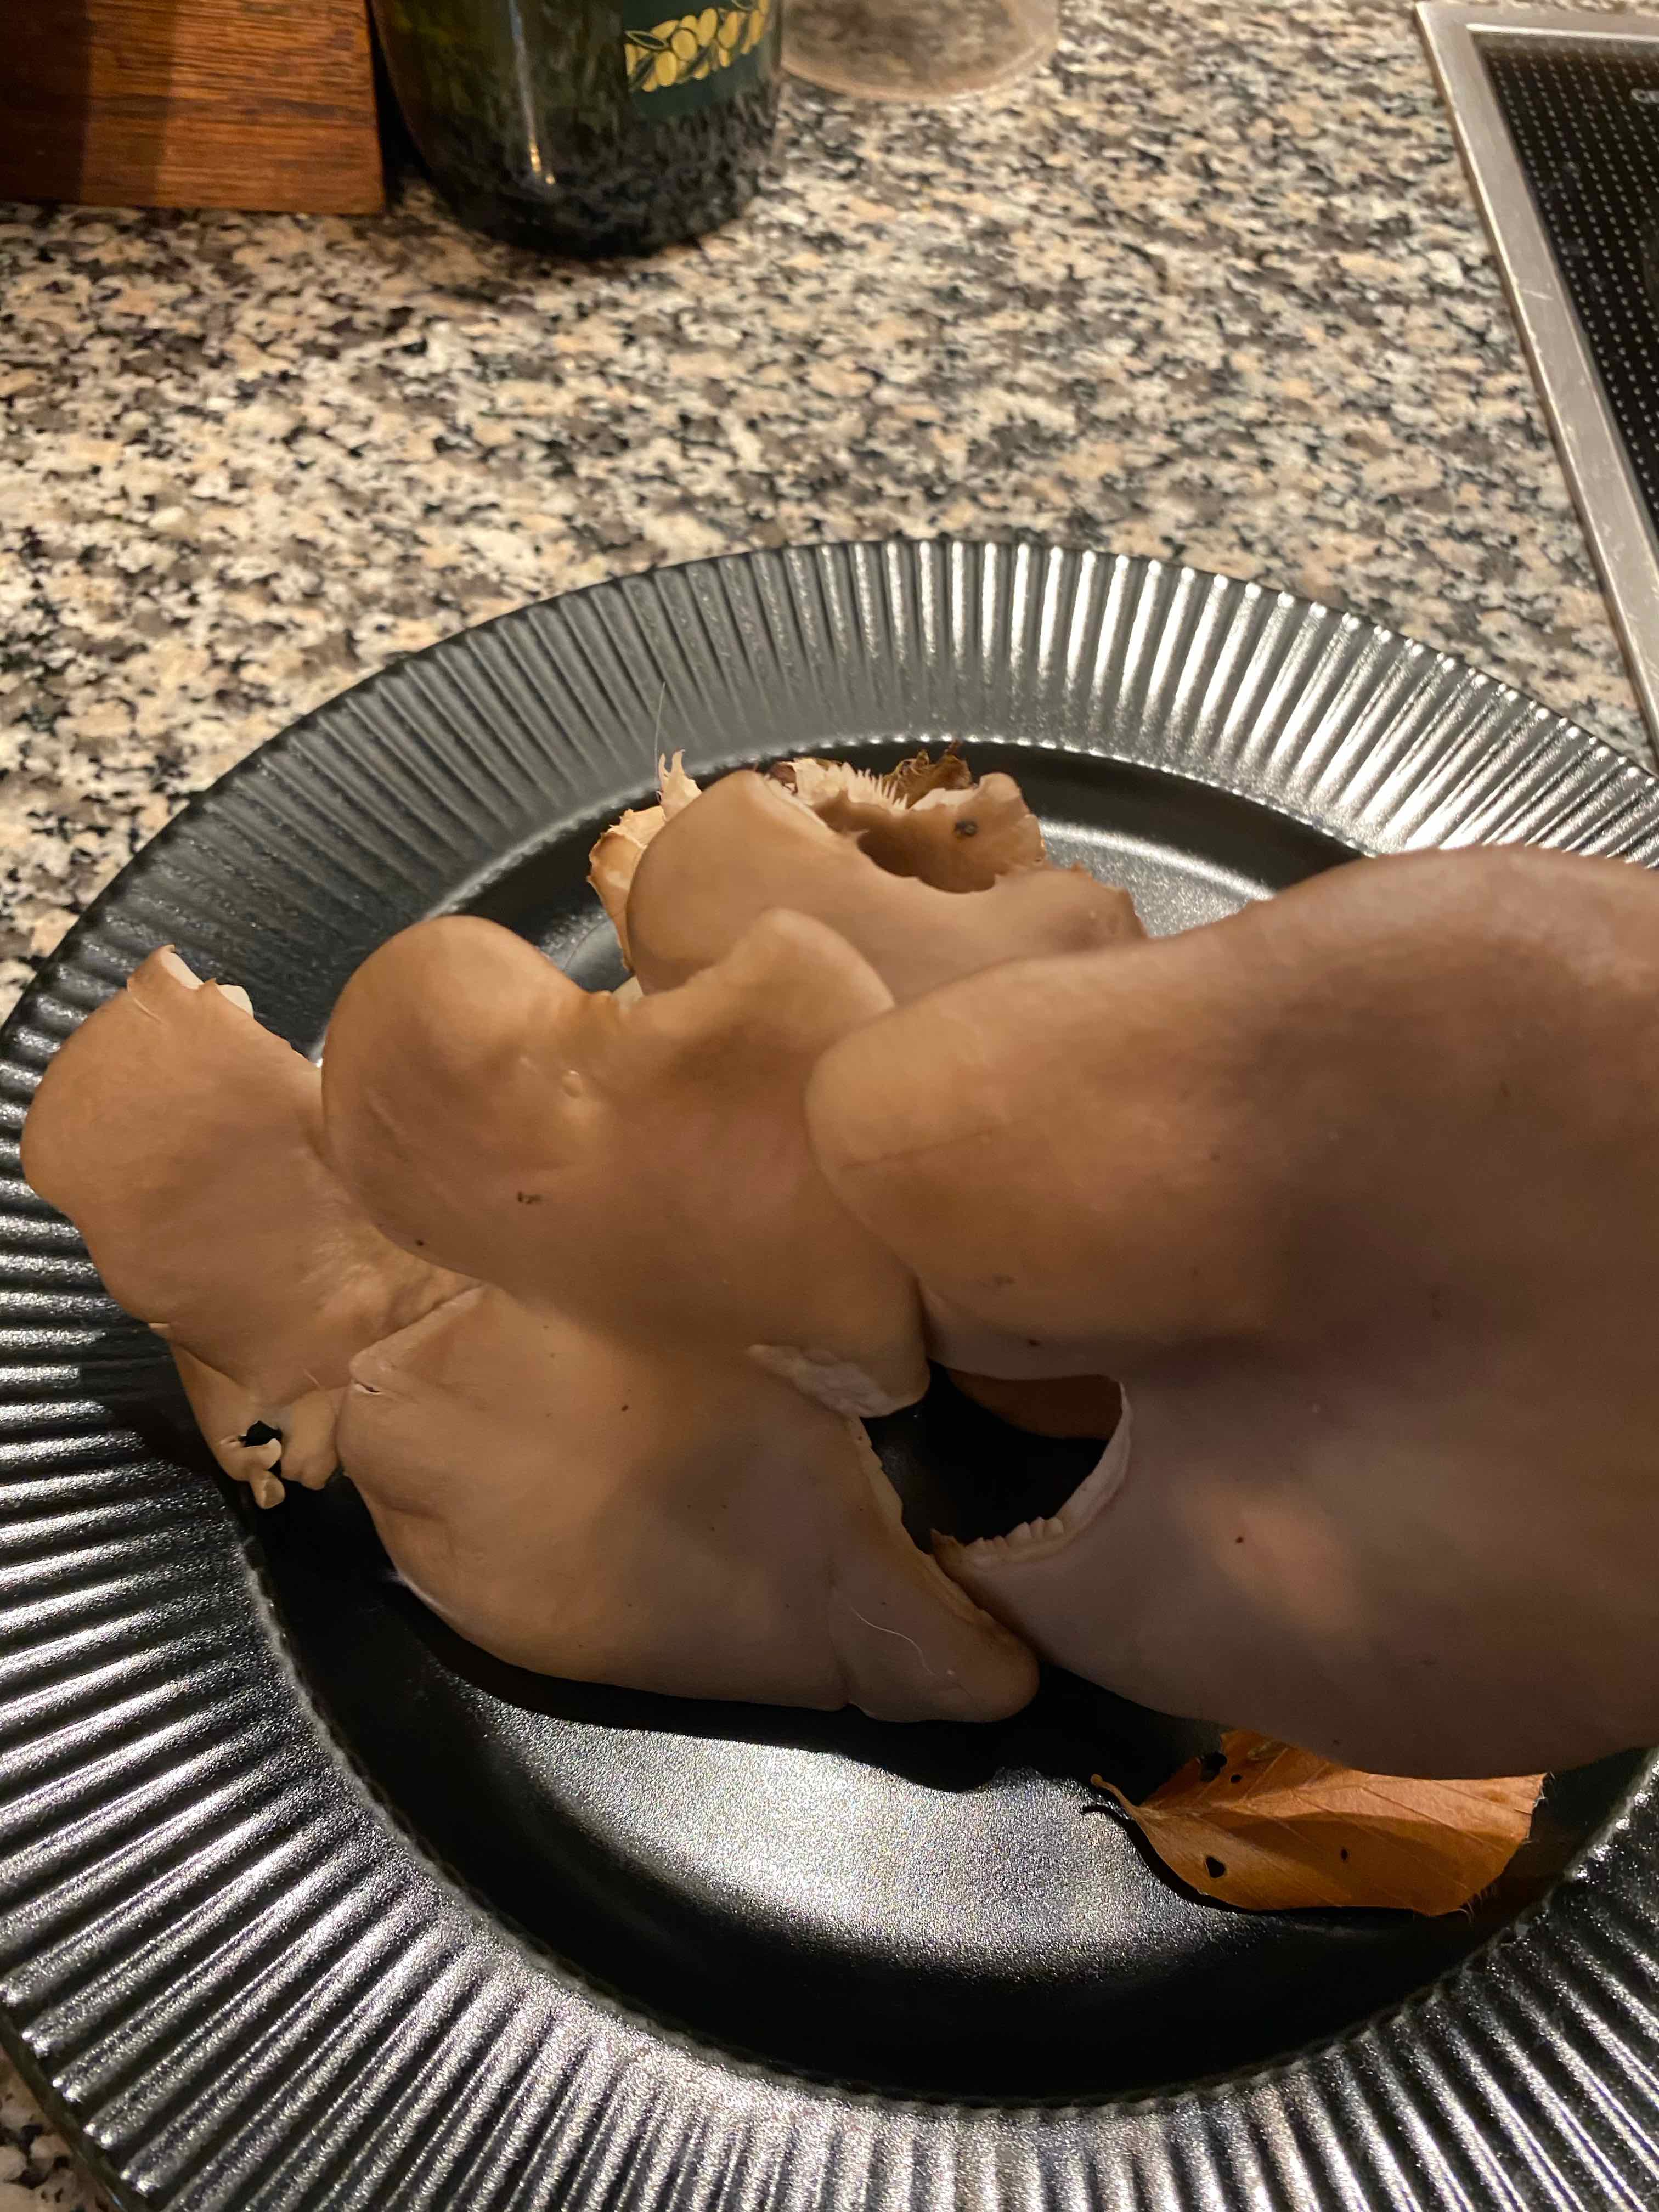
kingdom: Fungi
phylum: Basidiomycota
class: Agaricomycetes
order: Agaricales
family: Pleurotaceae
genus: Pleurotus
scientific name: Pleurotus
